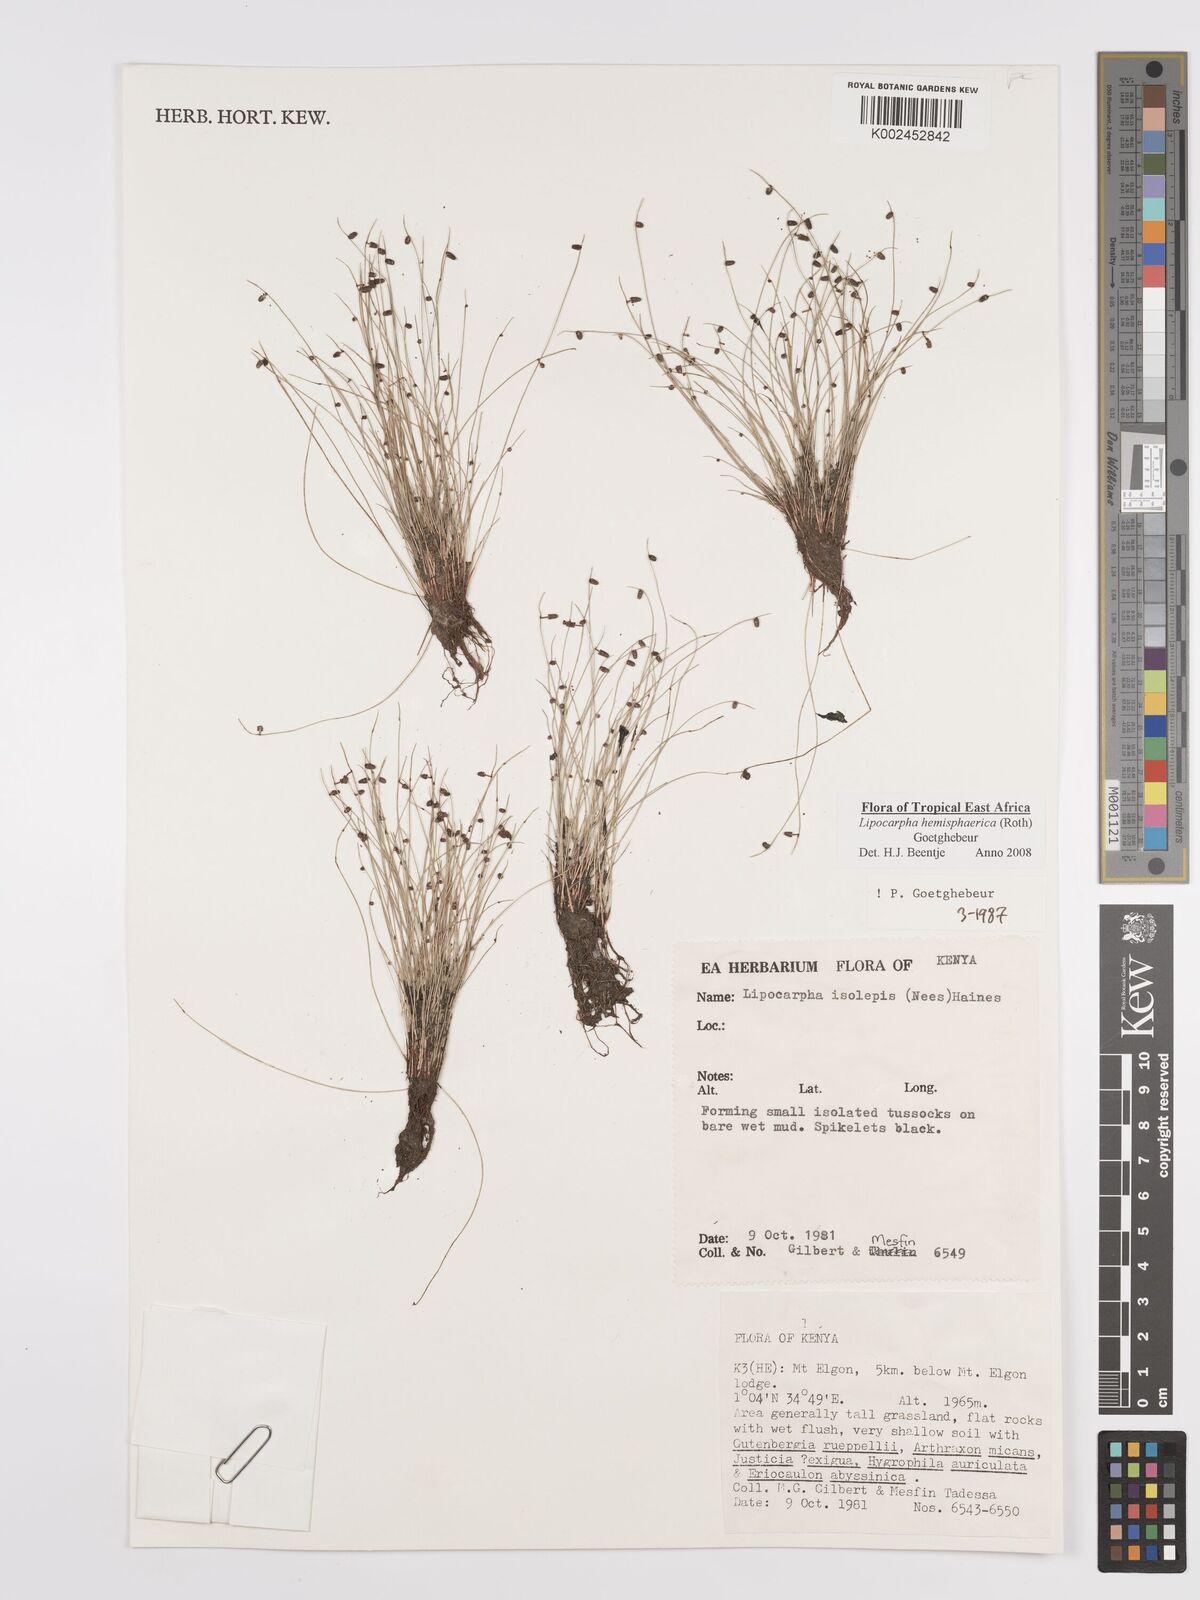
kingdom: Plantae
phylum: Tracheophyta
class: Liliopsida
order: Poales
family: Cyperaceae
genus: Cyperus
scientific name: Cyperus
